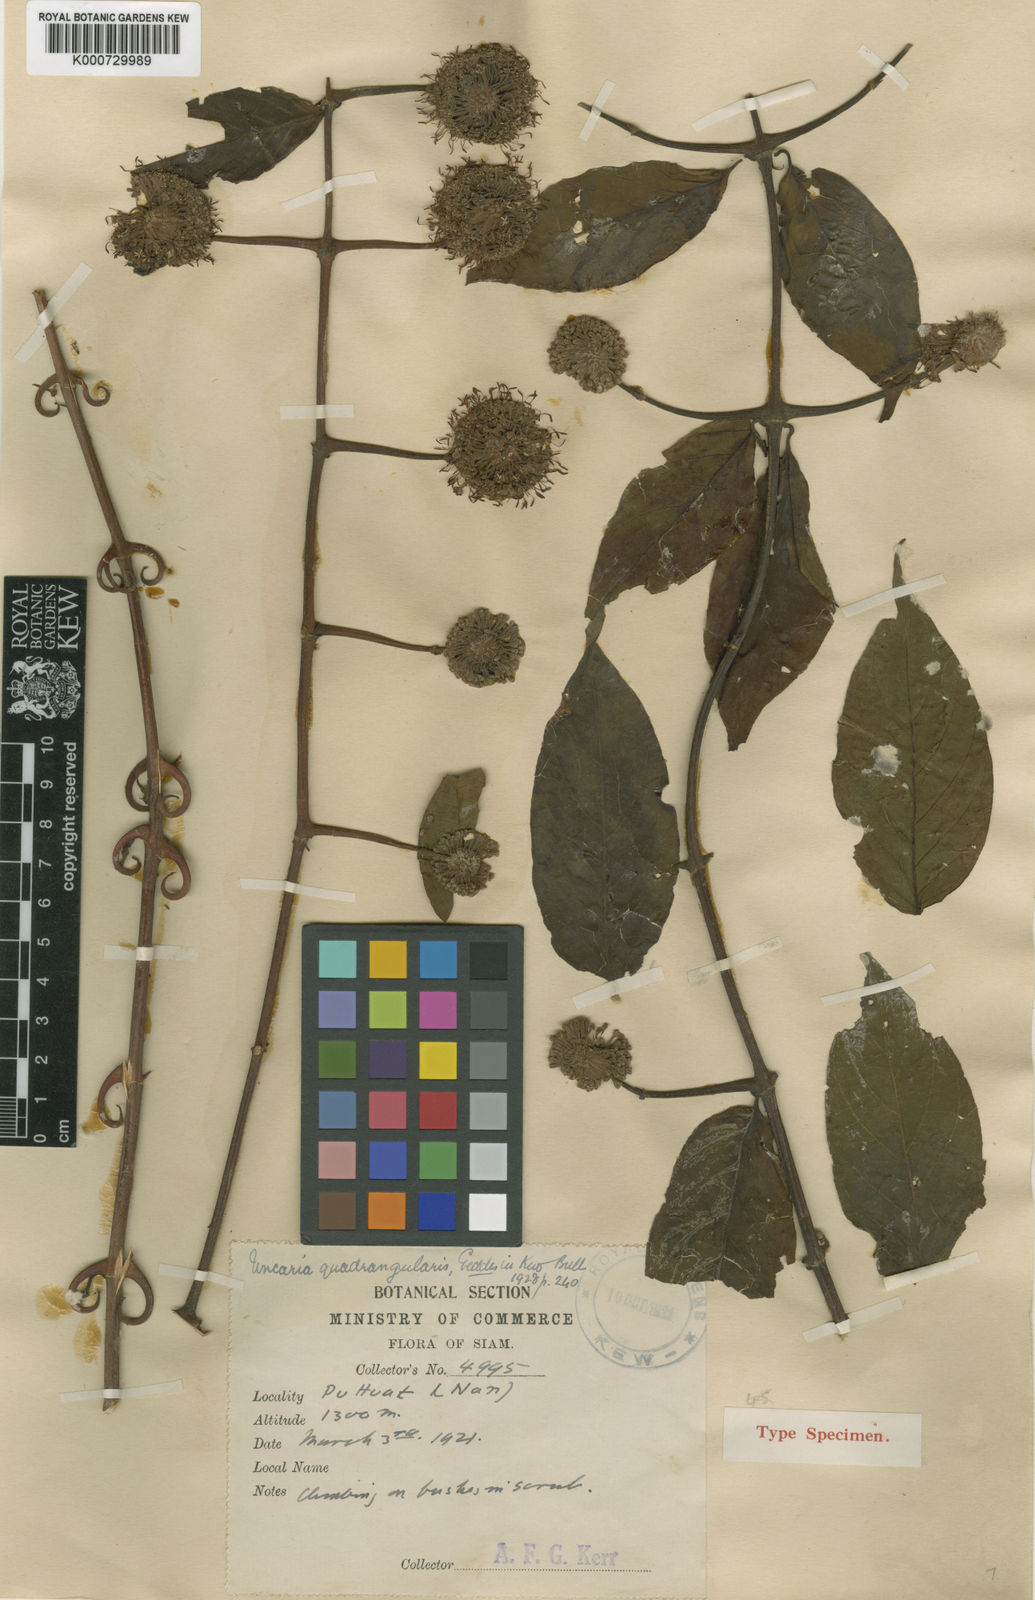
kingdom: Plantae
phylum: Tracheophyta
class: Magnoliopsida
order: Gentianales
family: Rubiaceae
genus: Uncaria
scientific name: Uncaria homomalla
